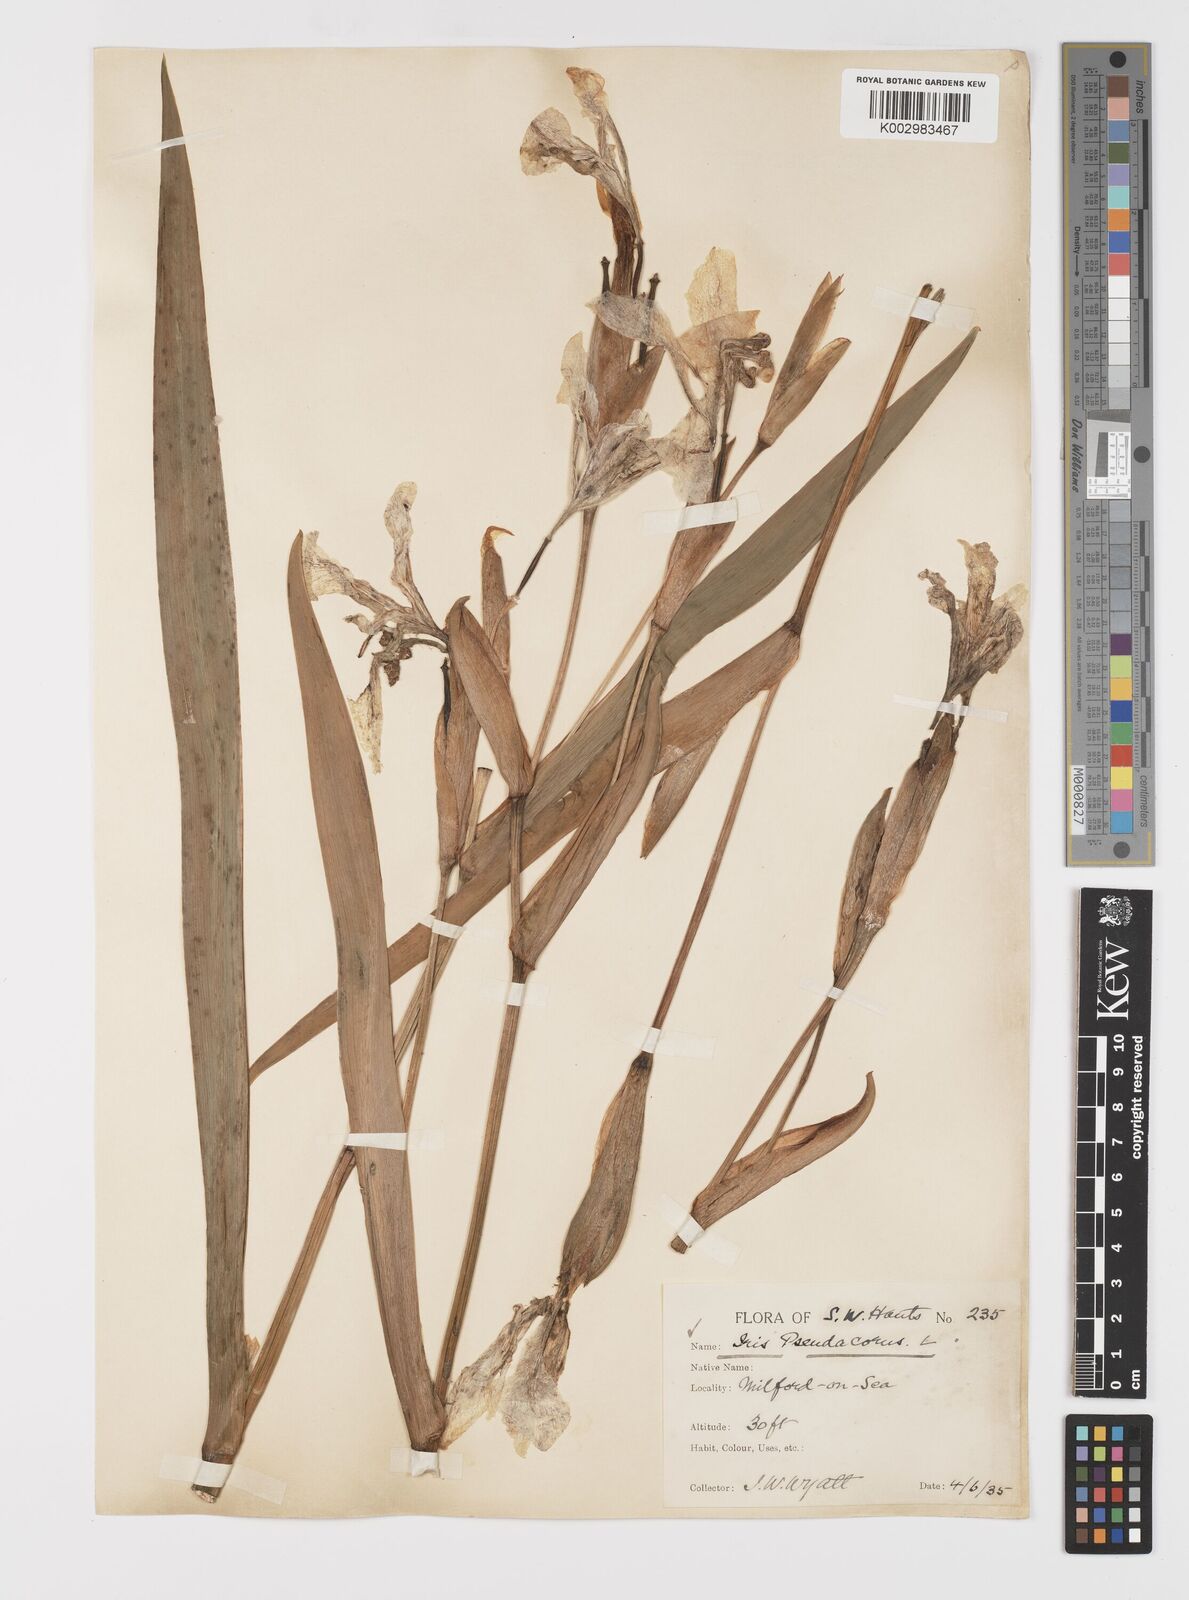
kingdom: Plantae
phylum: Tracheophyta
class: Liliopsida
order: Asparagales
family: Iridaceae
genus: Iris
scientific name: Iris pseudacorus
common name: Yellow flag
